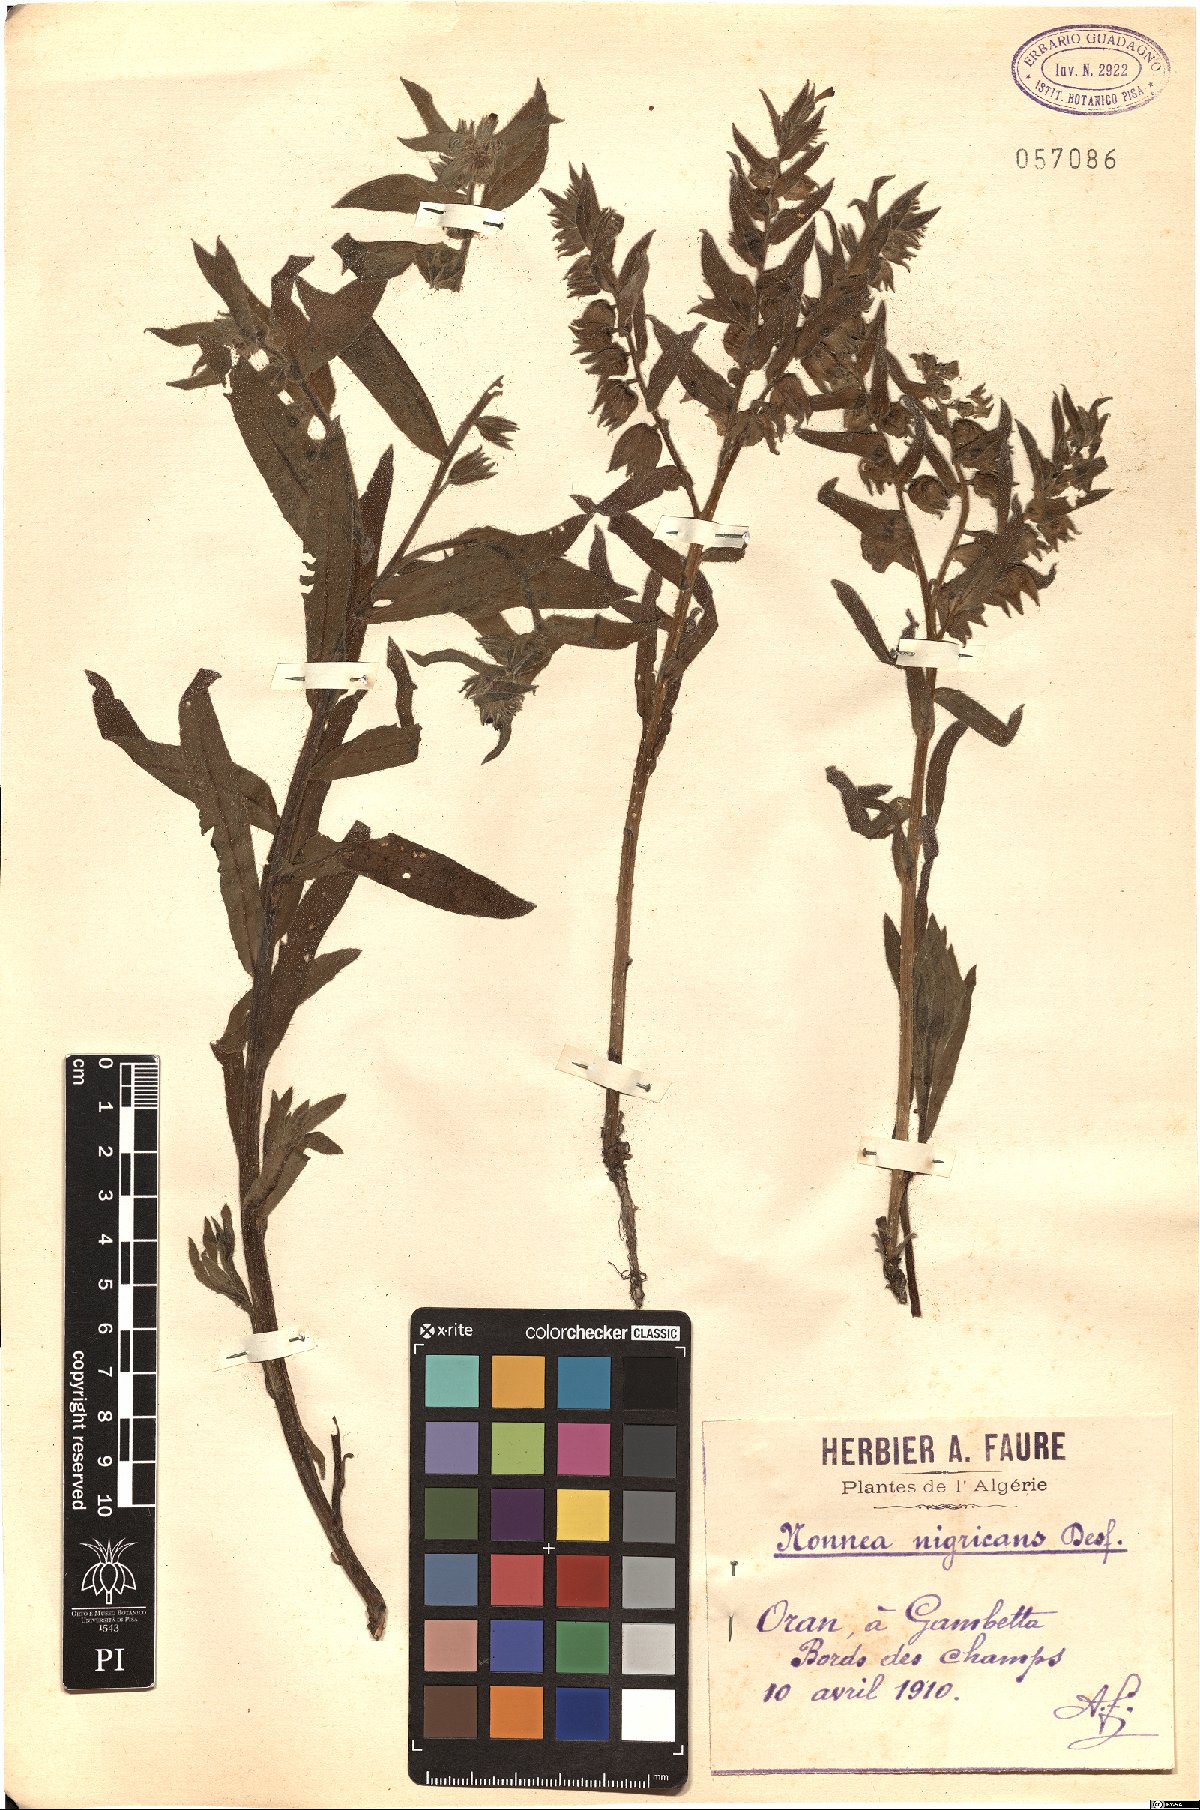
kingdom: Plantae
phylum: Tracheophyta
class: Magnoliopsida
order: Boraginales
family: Boraginaceae
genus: Nonea
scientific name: Nonea vesicaria
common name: Red monkswort
